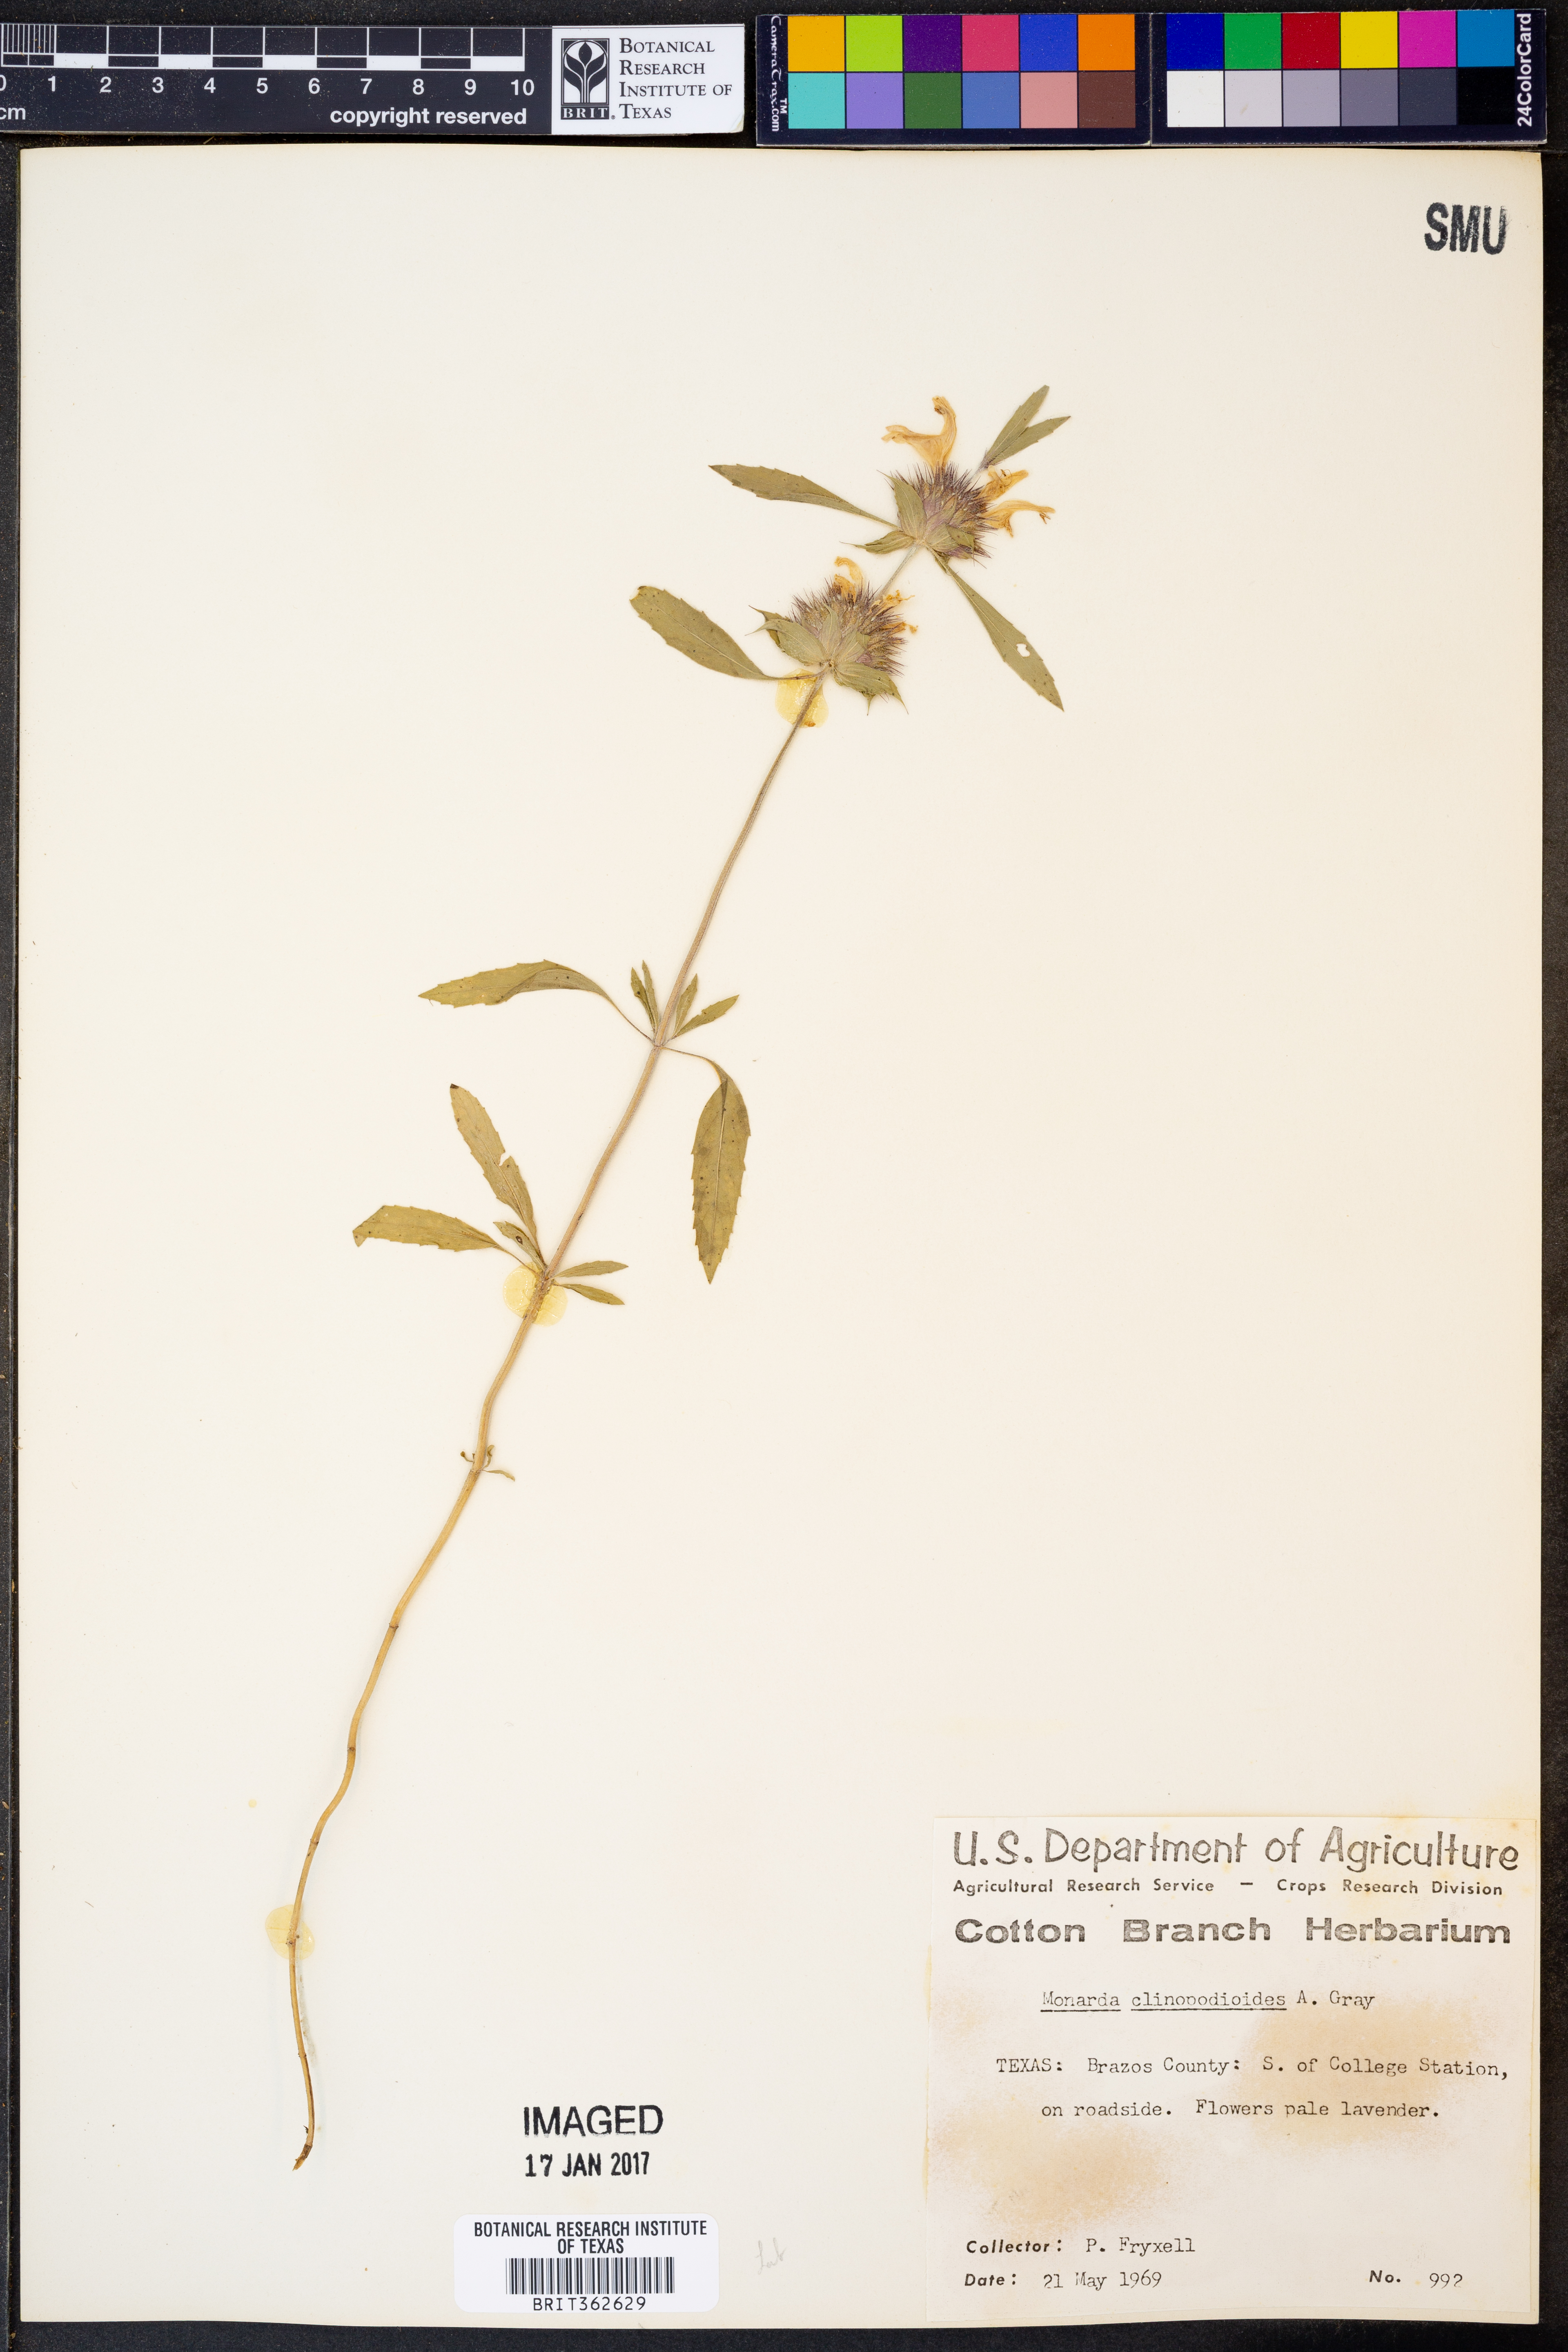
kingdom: Plantae
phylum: Tracheophyta
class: Magnoliopsida
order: Lamiales
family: Lamiaceae
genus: Monarda
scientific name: Monarda clinopodioides
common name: Basil beebalm
